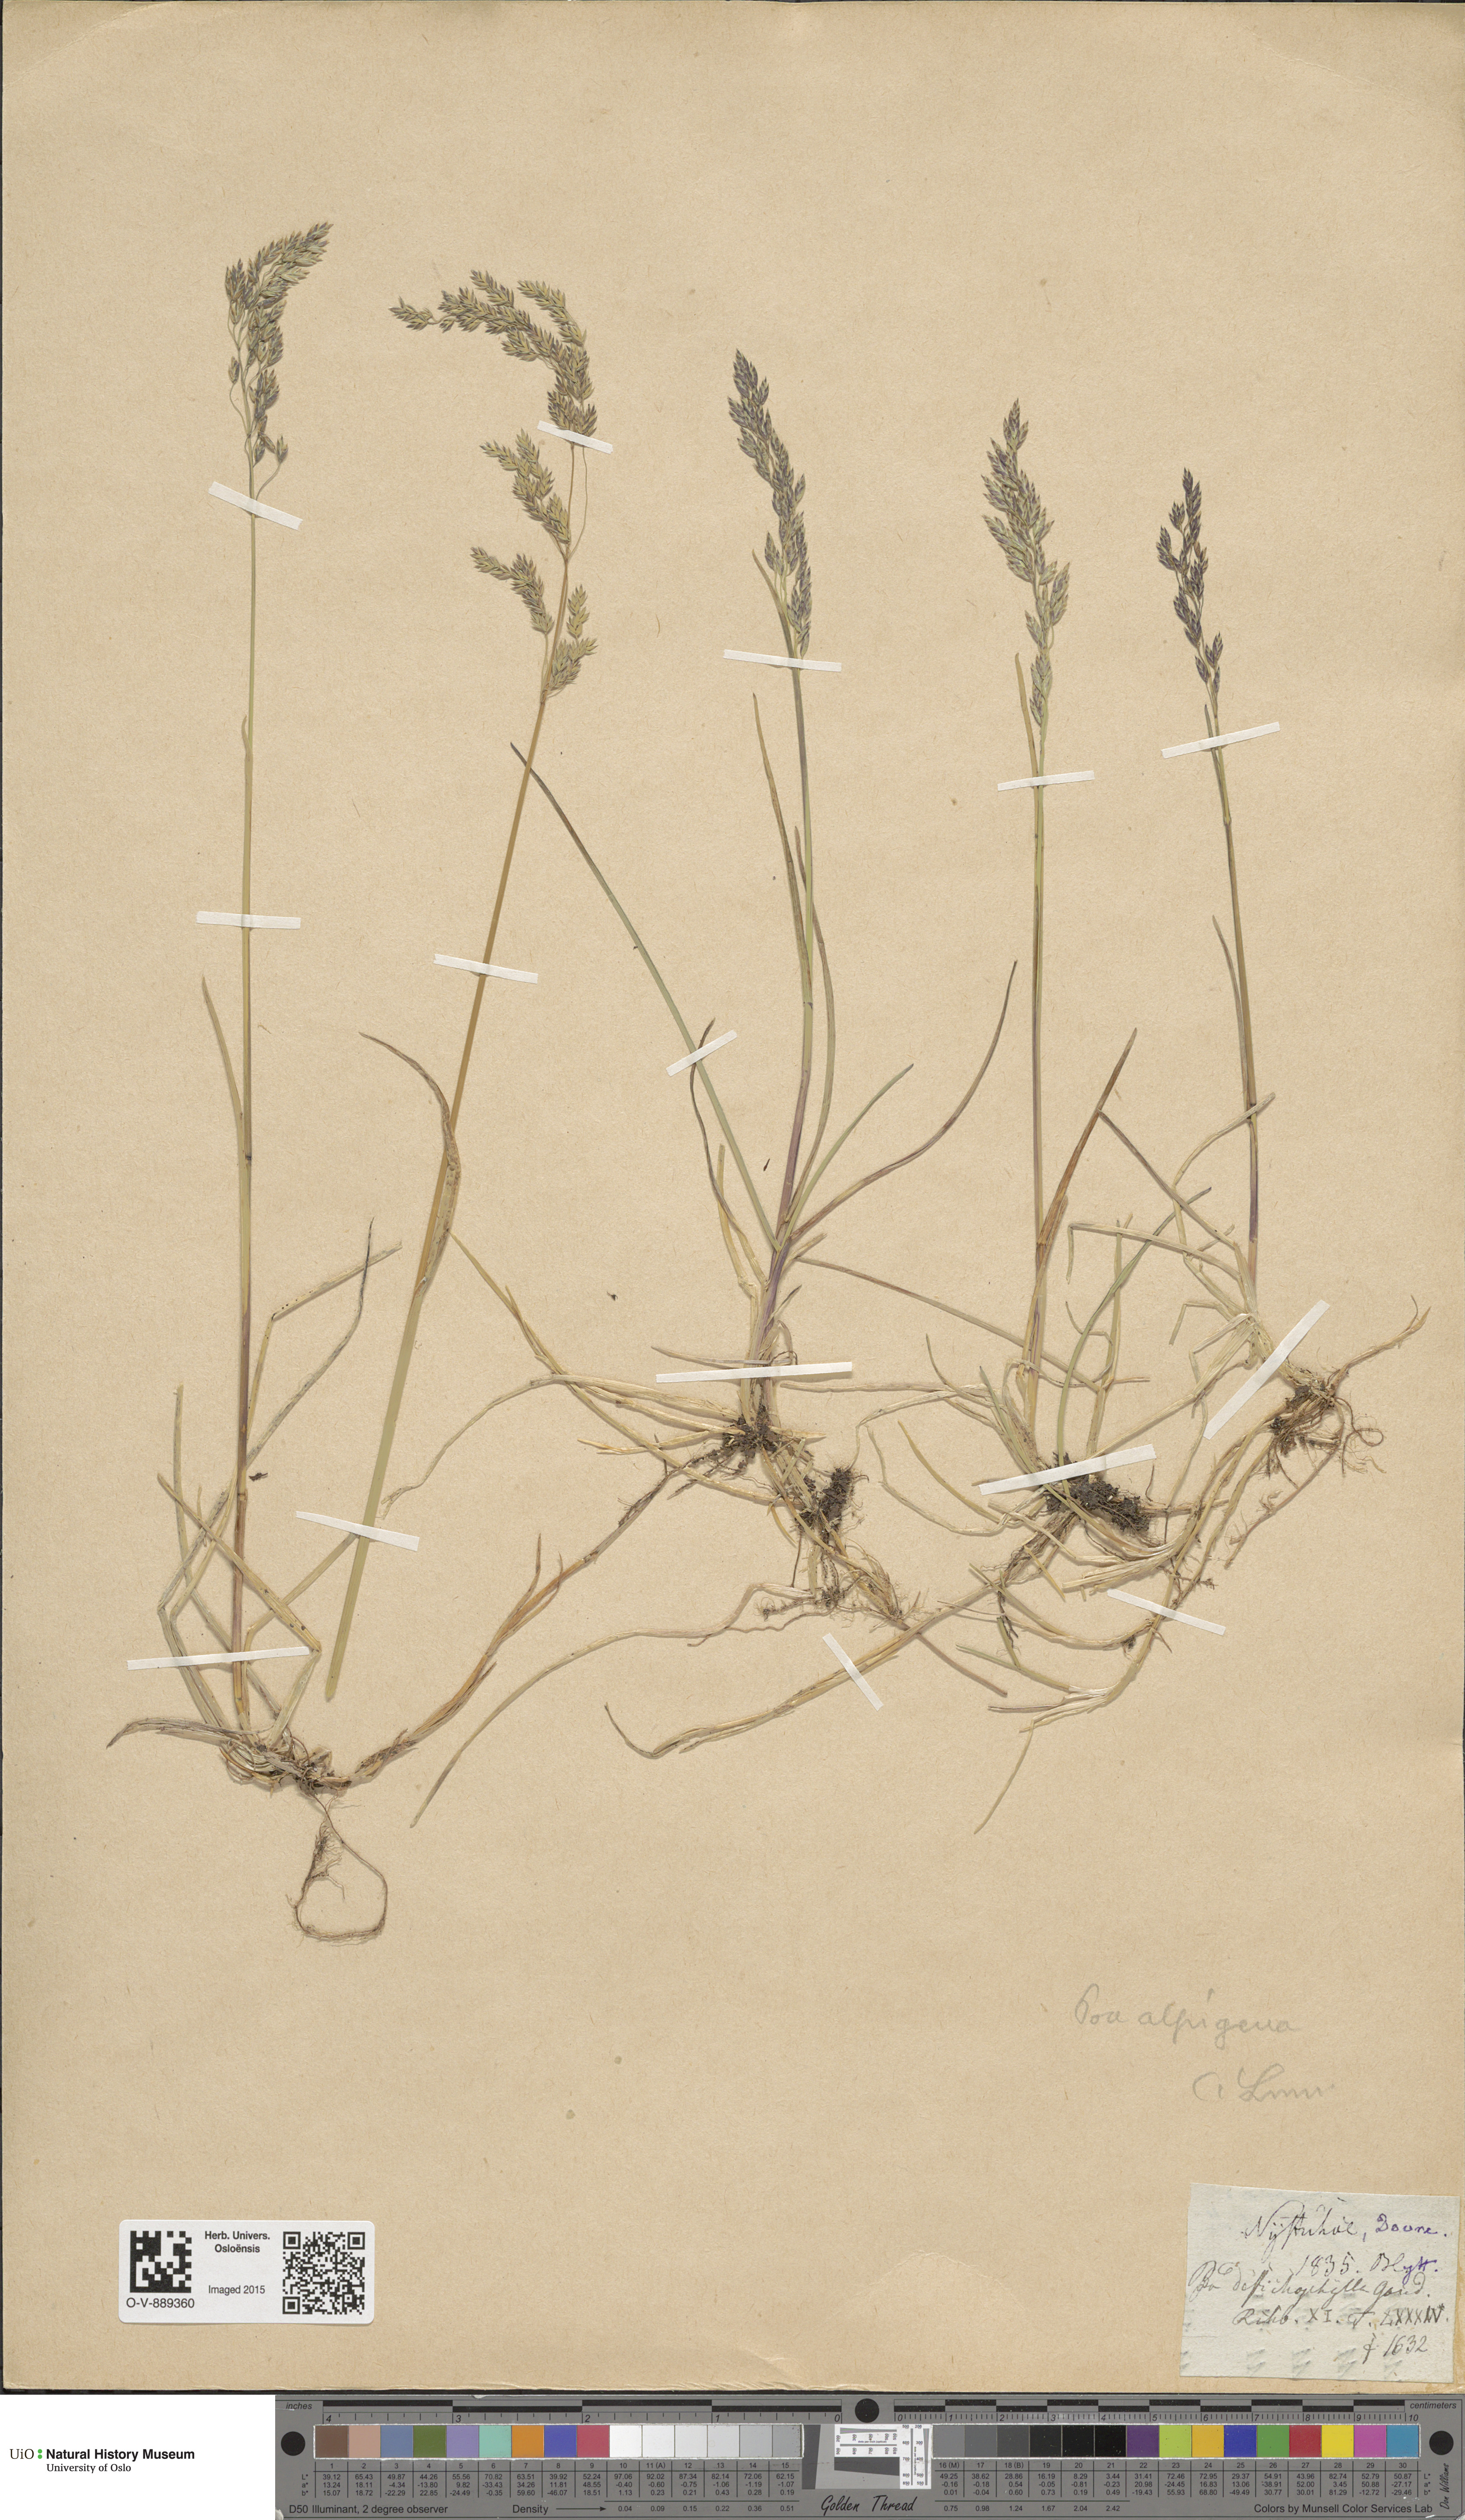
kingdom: Plantae
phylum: Tracheophyta
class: Liliopsida
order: Poales
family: Poaceae
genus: Poa
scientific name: Poa alpigena
